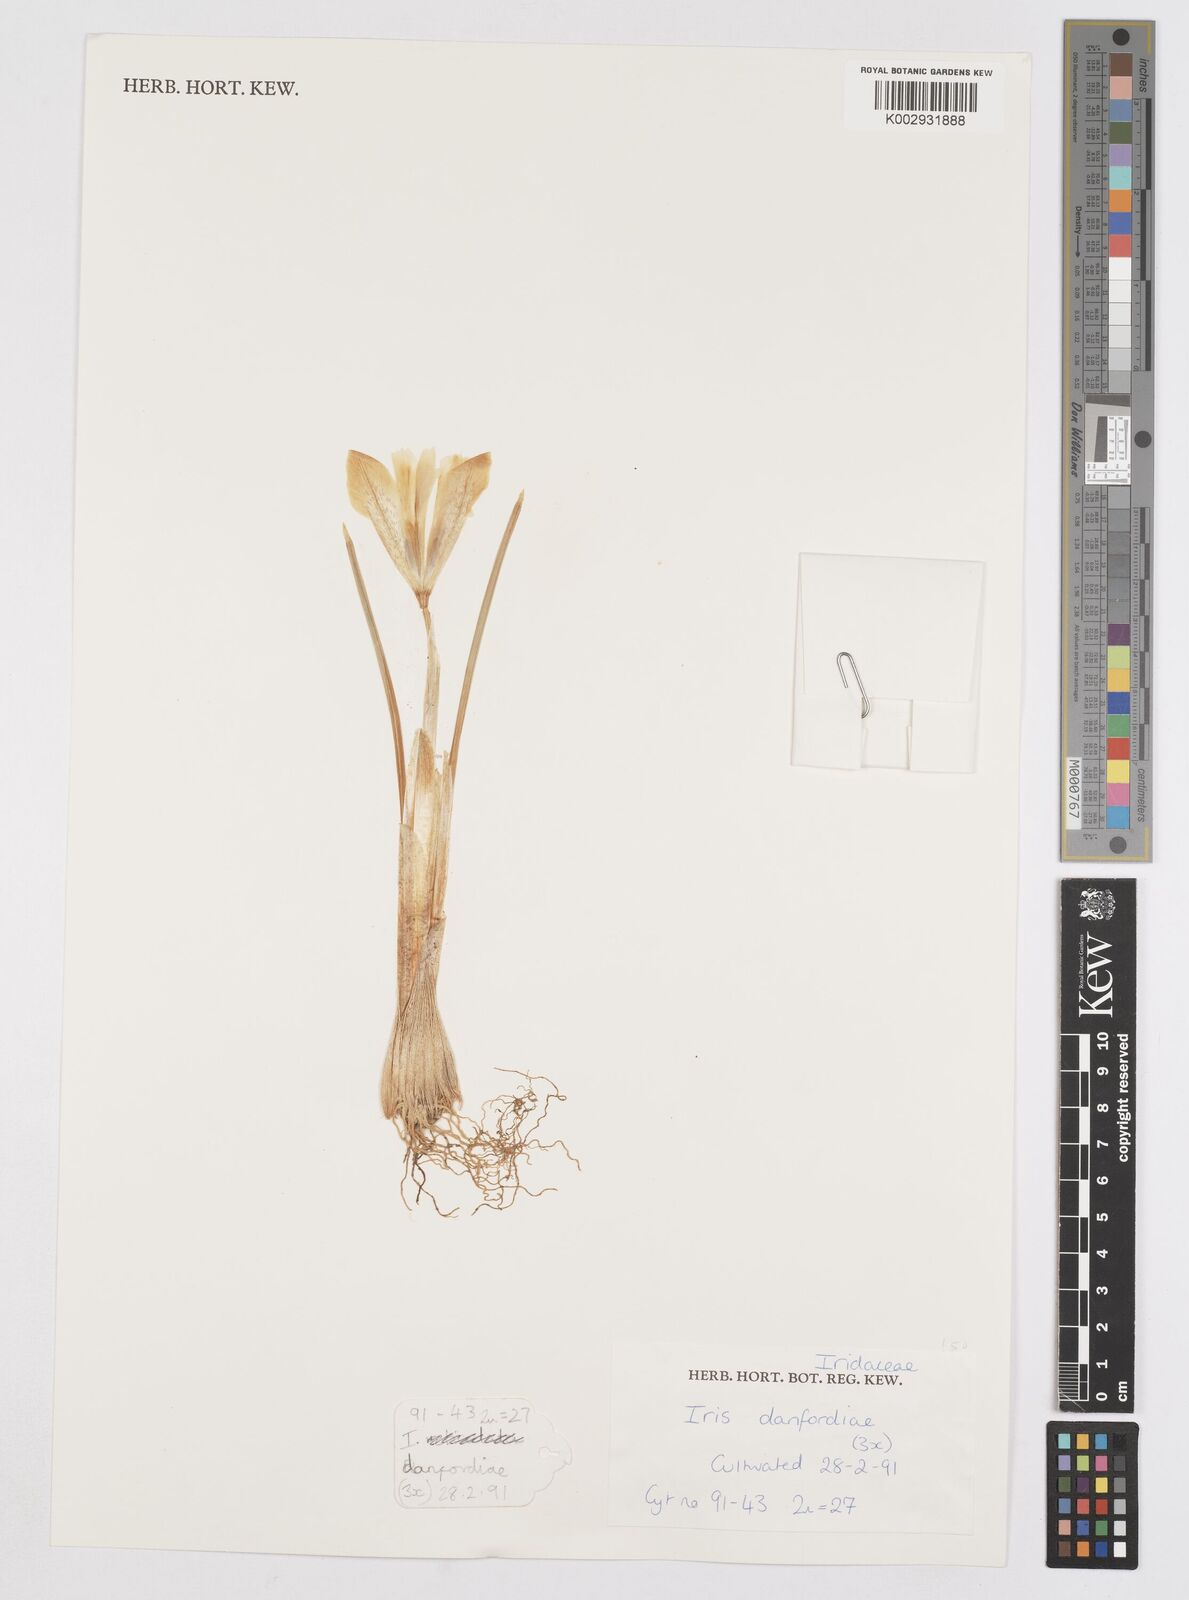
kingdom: Plantae
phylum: Tracheophyta
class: Liliopsida
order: Asparagales
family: Iridaceae
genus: Iris
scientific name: Iris danfordiae
